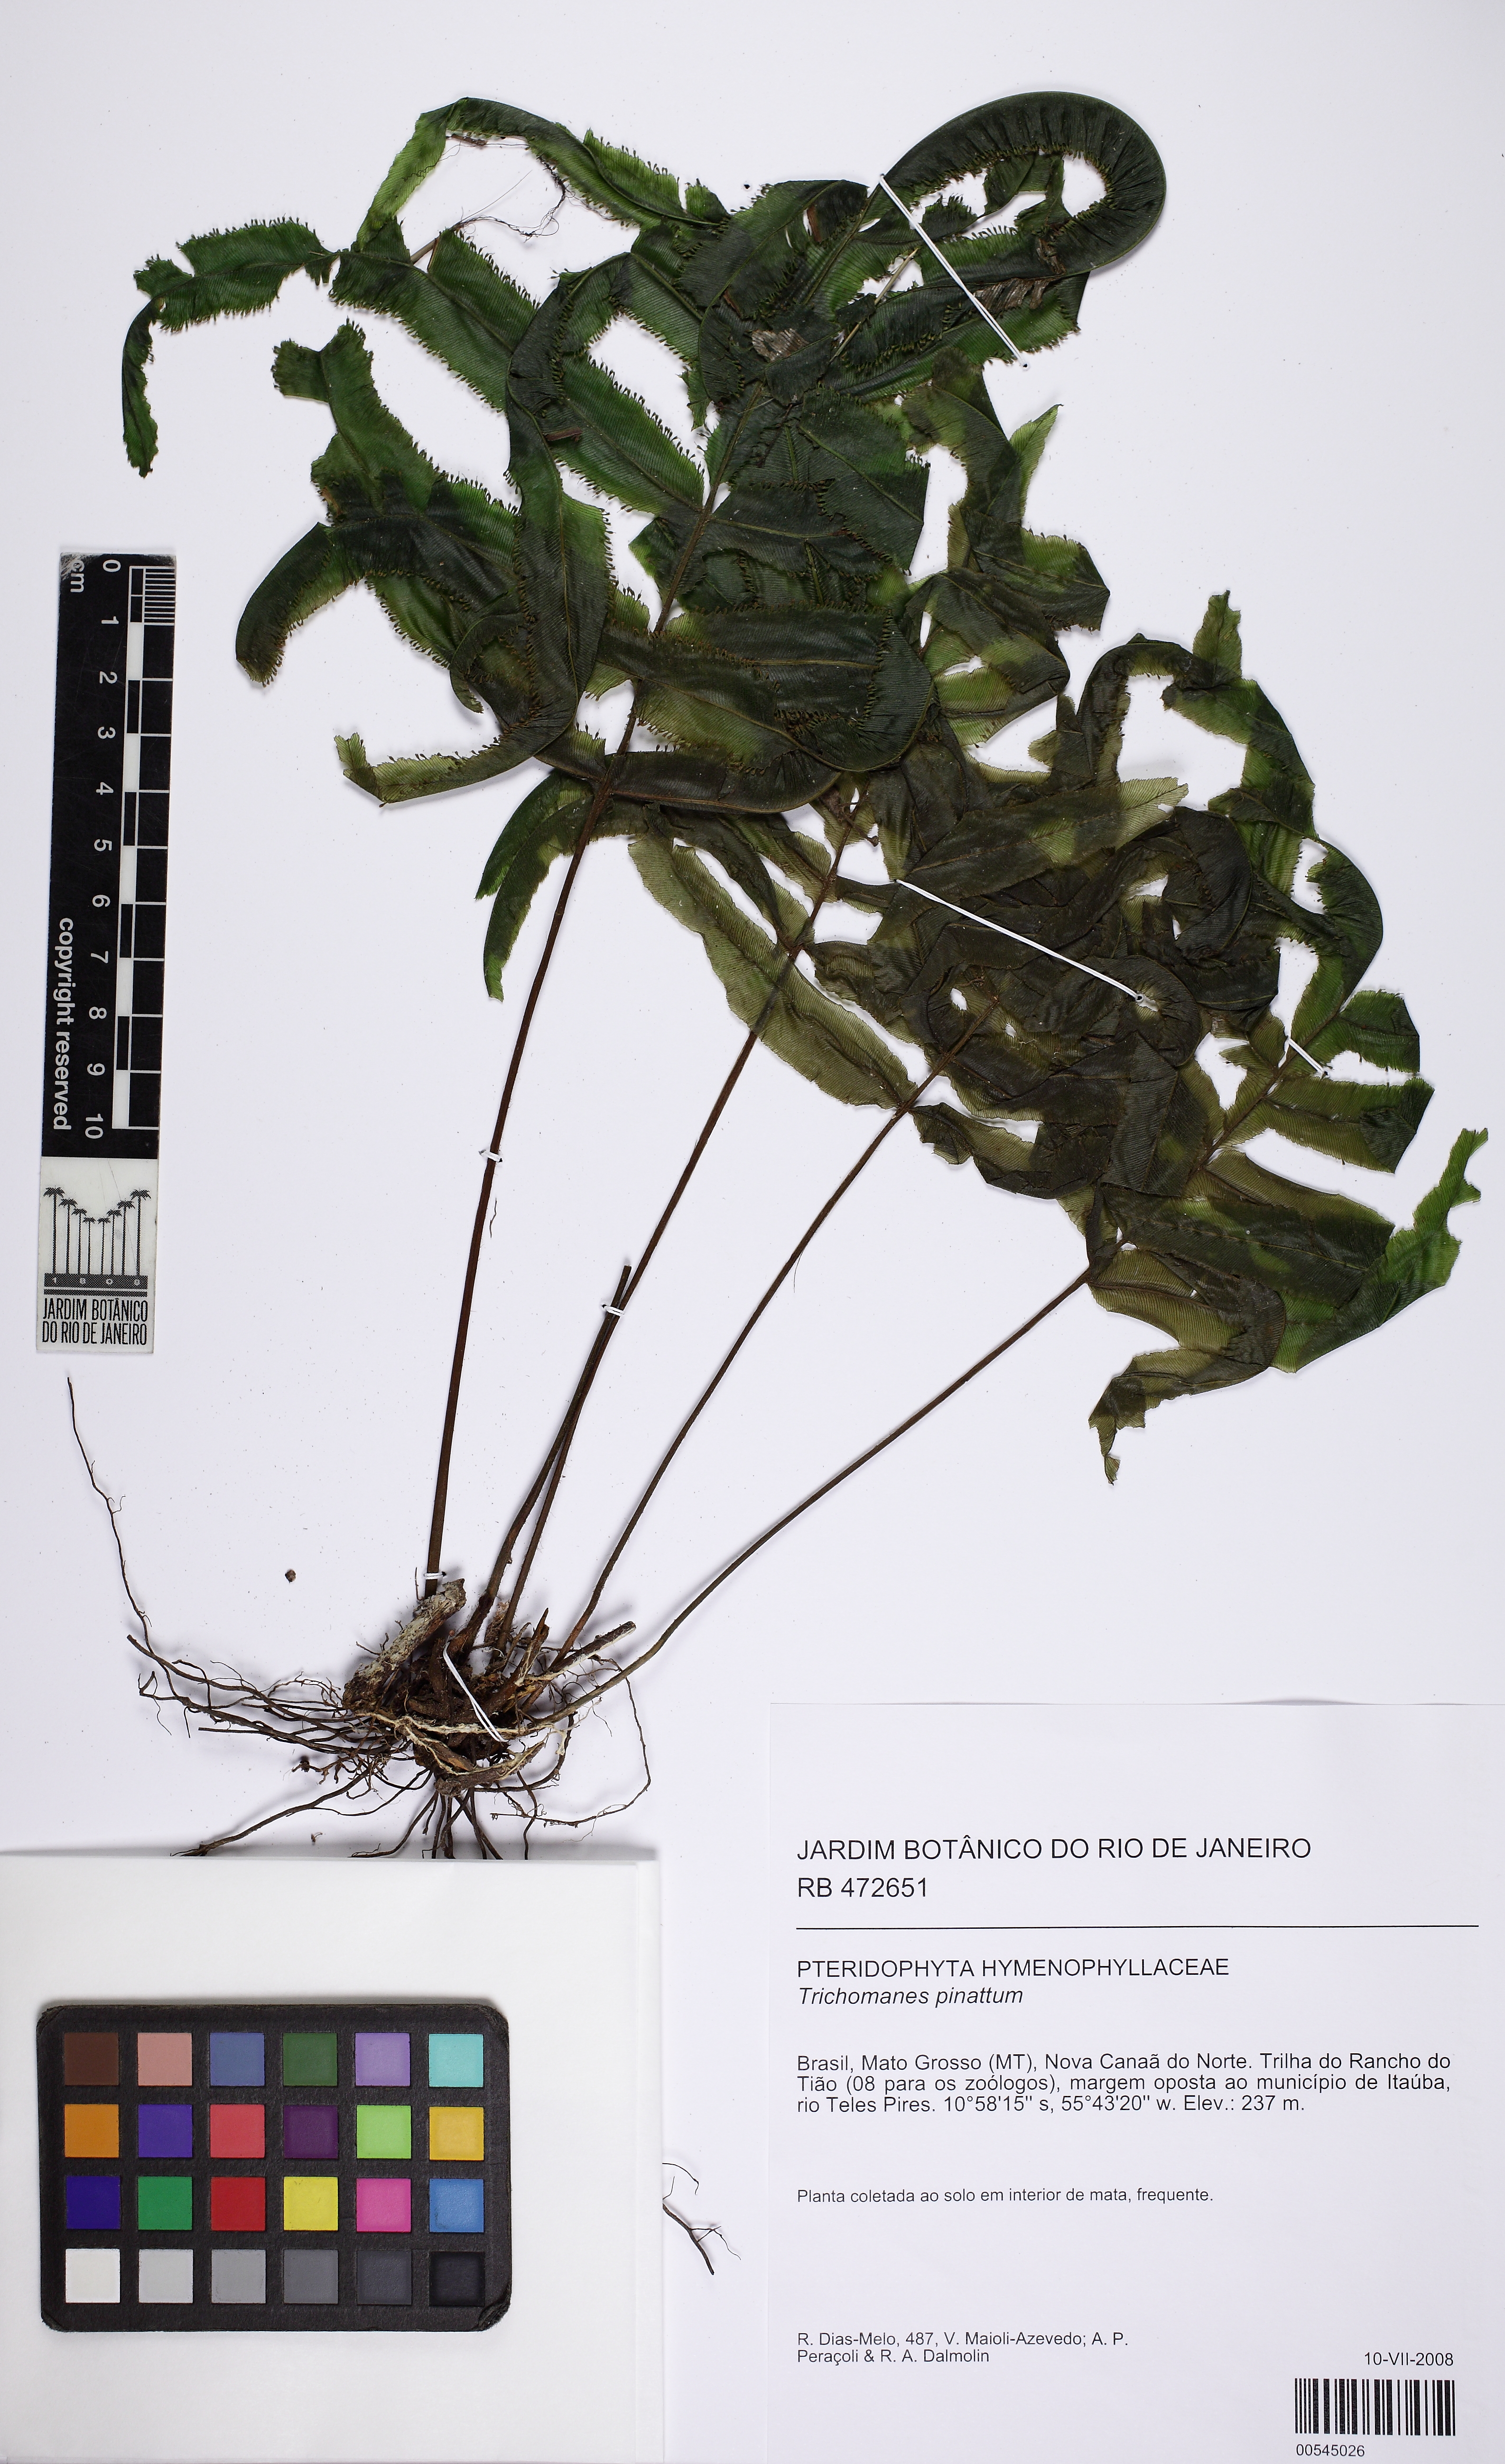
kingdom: Plantae
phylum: Tracheophyta
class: Polypodiopsida
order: Hymenophyllales
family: Hymenophyllaceae
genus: Trichomanes
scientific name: Trichomanes pinnatum
